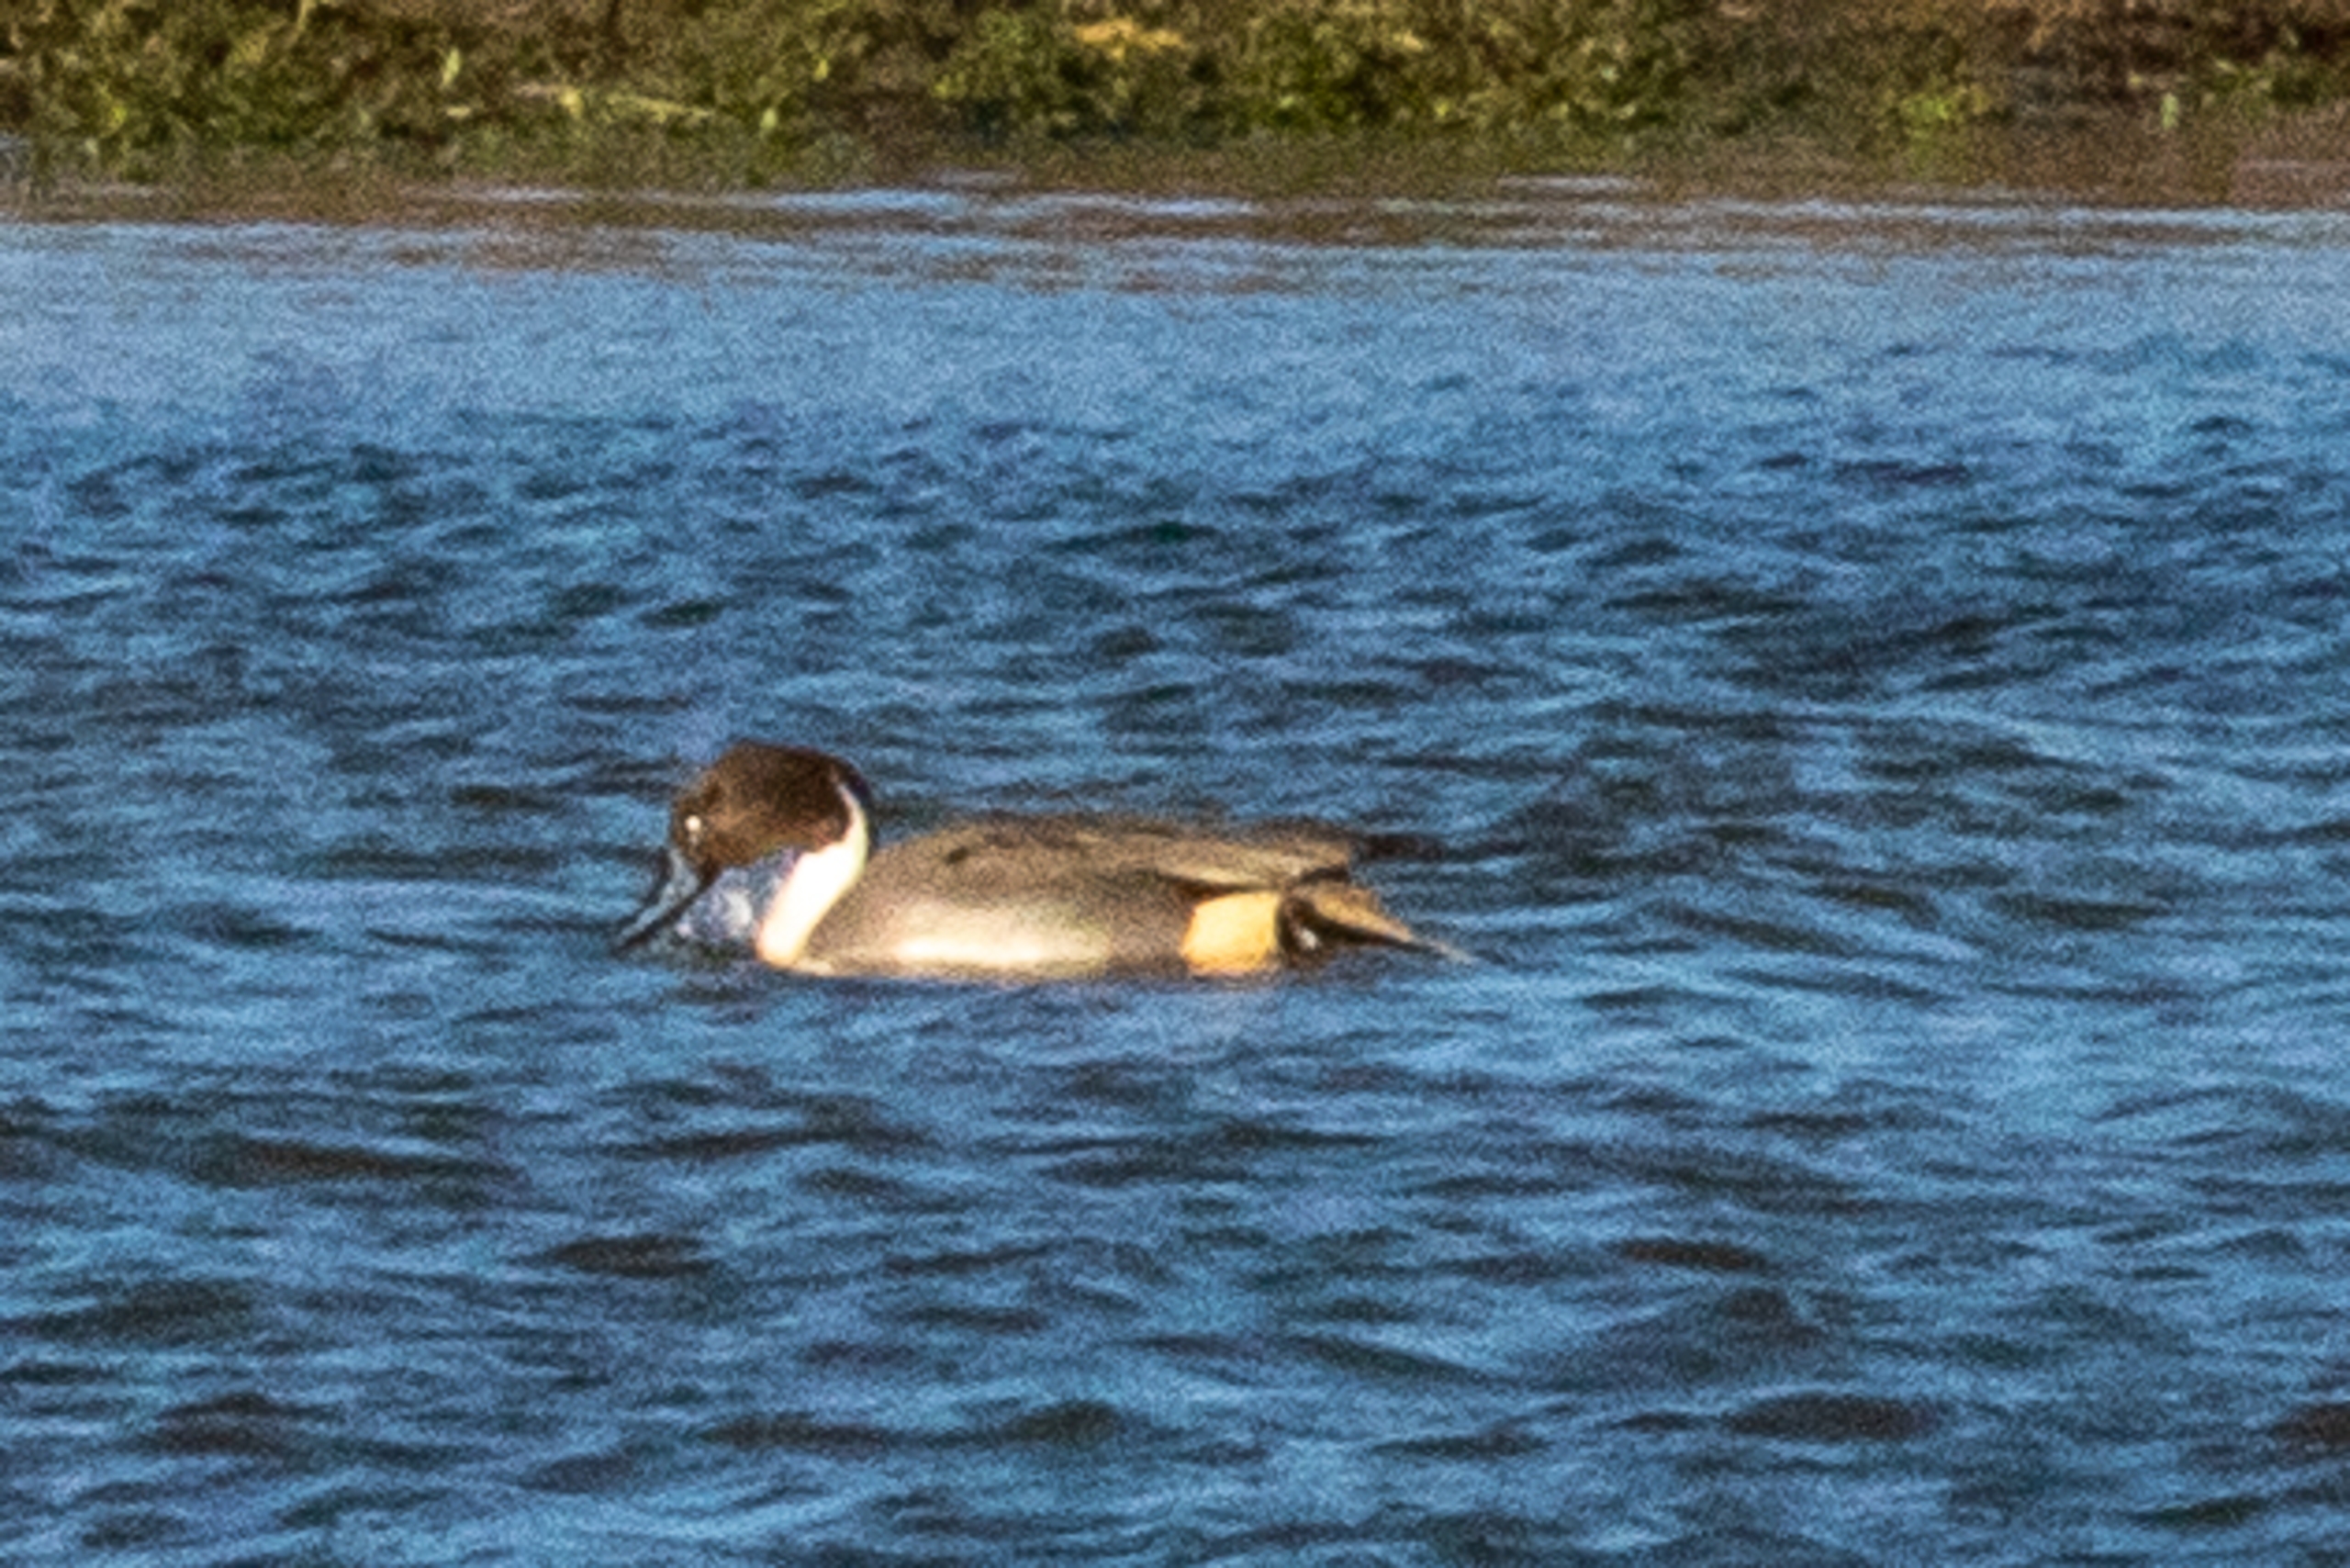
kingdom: Animalia
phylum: Chordata
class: Aves
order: Anseriformes
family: Anatidae
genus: Anas
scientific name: Anas acuta
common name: Spidsand
